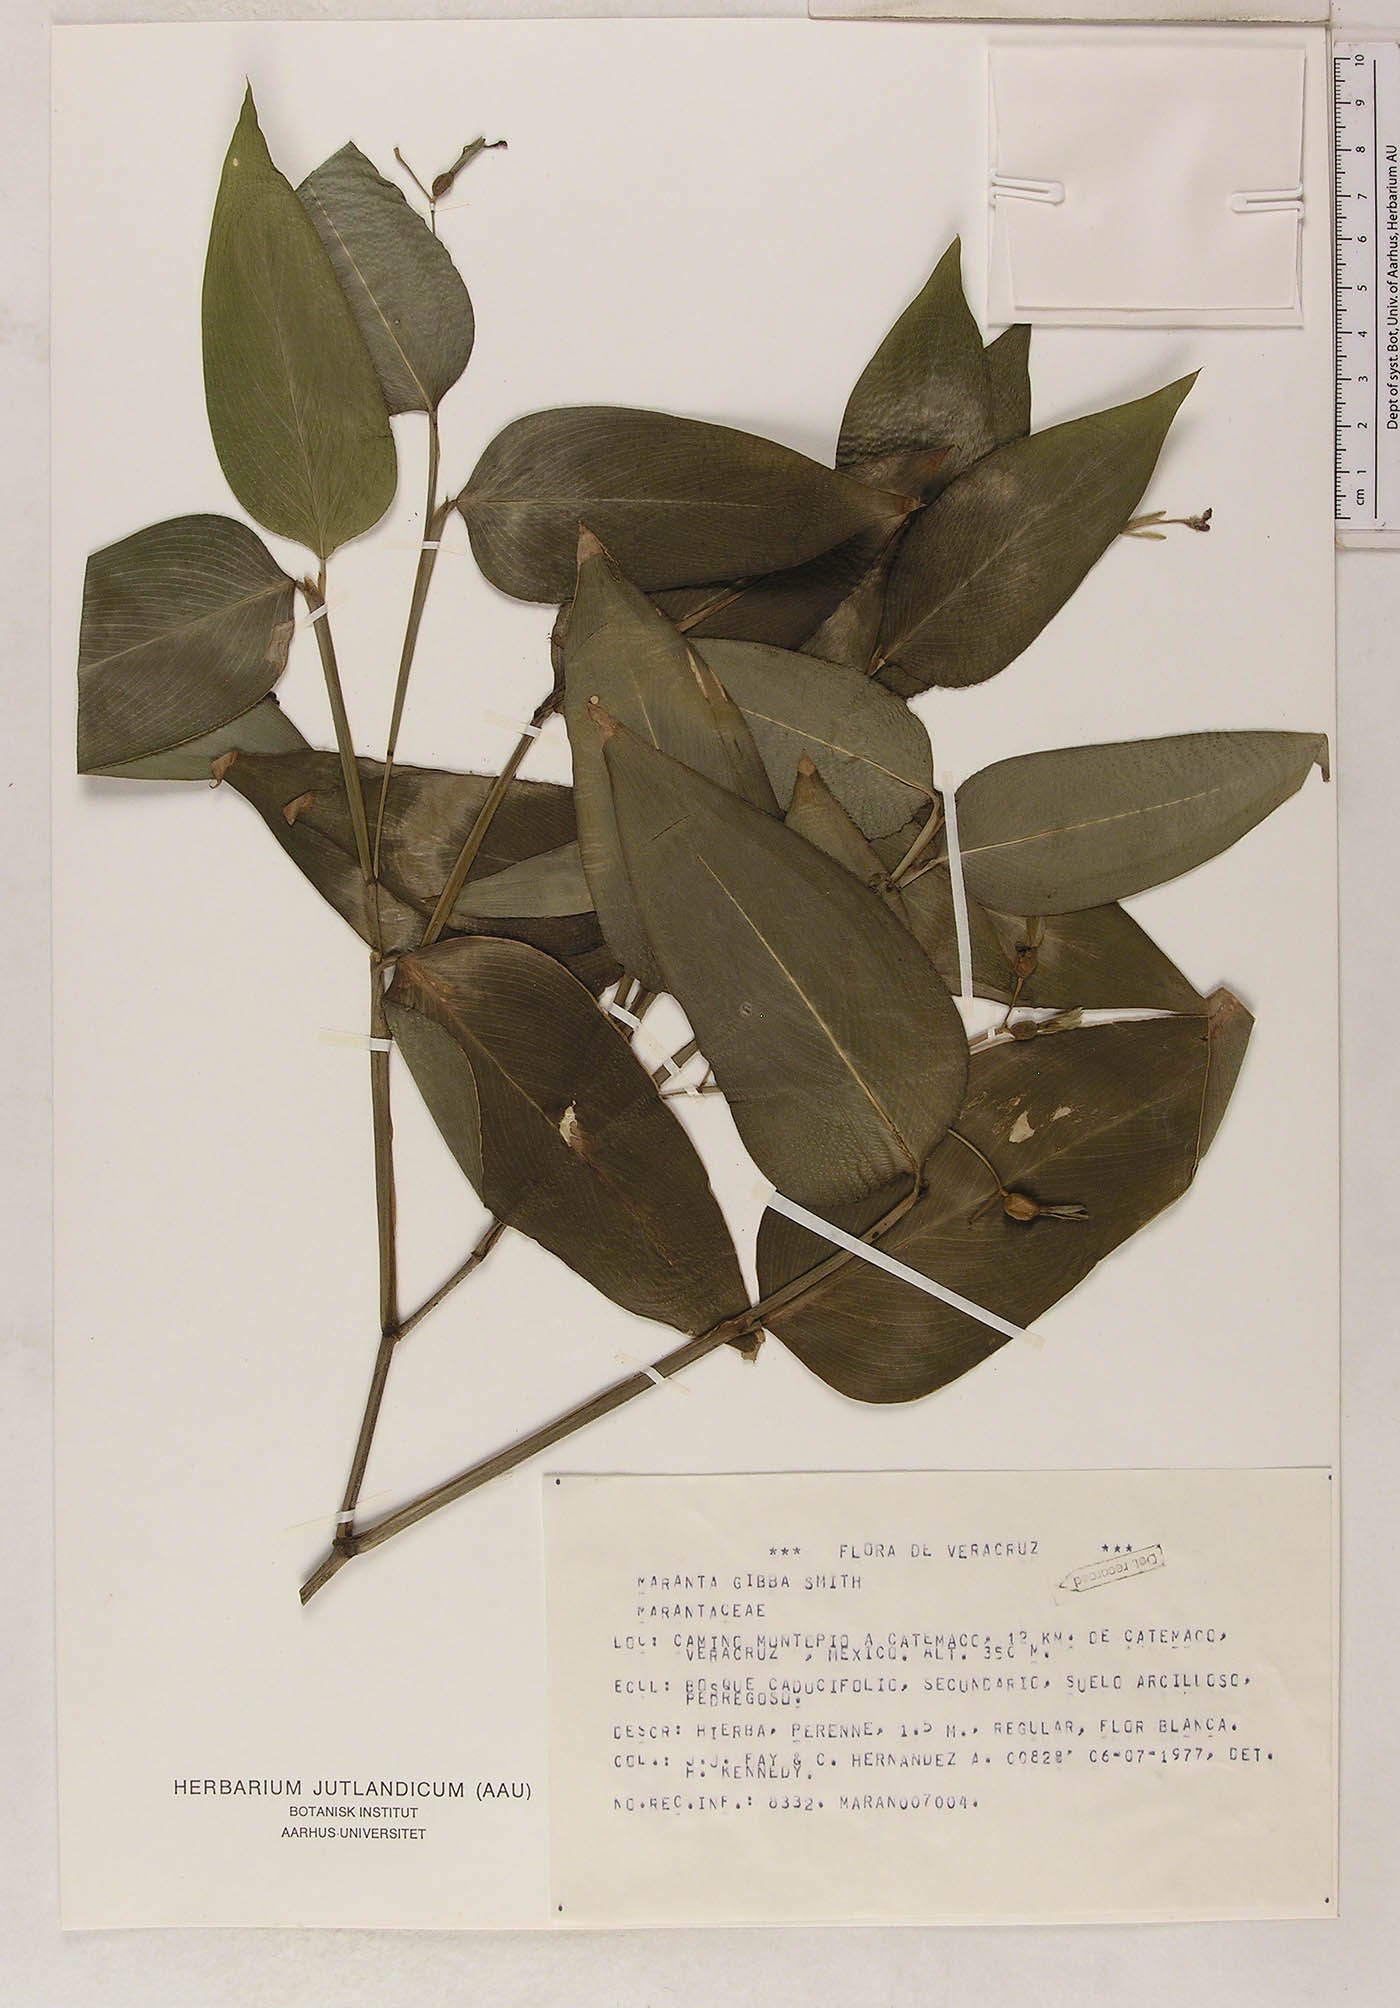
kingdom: Plantae
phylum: Tracheophyta
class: Liliopsida
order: Zingiberales
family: Marantaceae
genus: Maranta
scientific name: Maranta gibba
